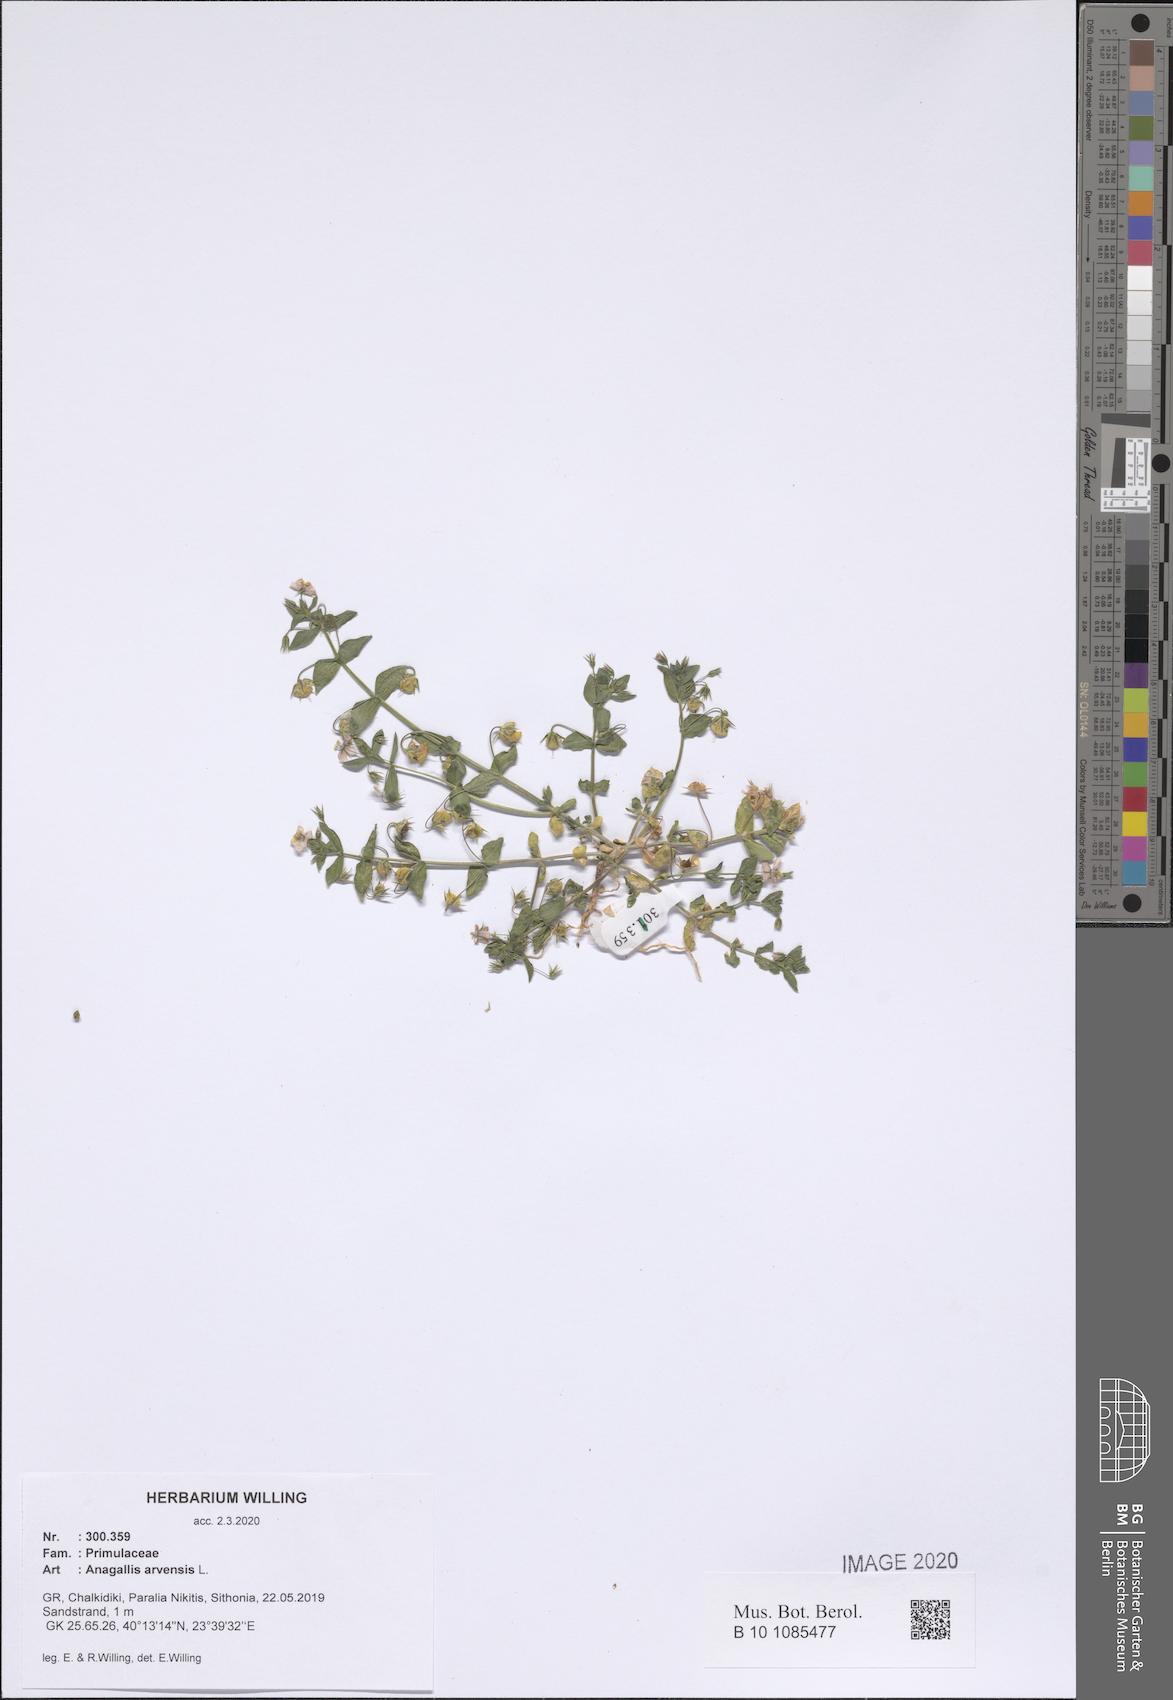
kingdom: Plantae
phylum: Tracheophyta
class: Magnoliopsida
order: Ericales
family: Primulaceae
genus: Lysimachia
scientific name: Lysimachia arvensis
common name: Scarlet pimpernel
